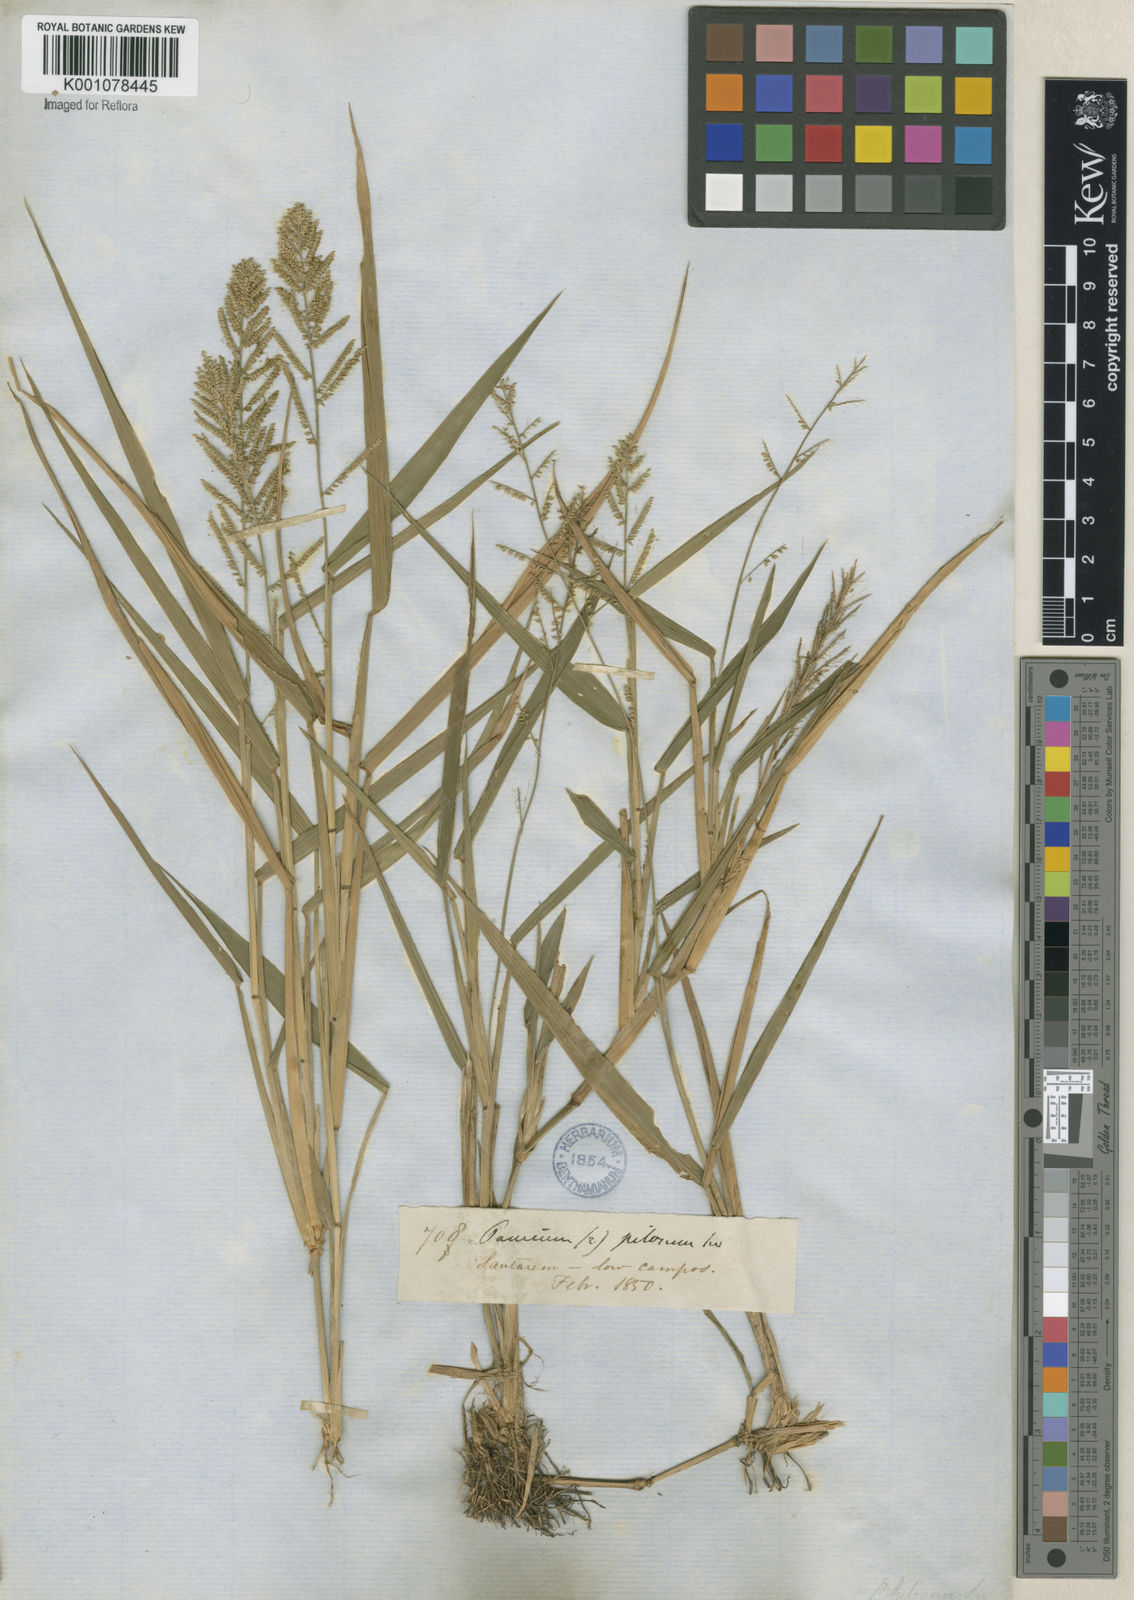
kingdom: Plantae
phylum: Tracheophyta
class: Liliopsida
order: Poales
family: Poaceae
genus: Rugoloa
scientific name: Rugoloa pilosa
